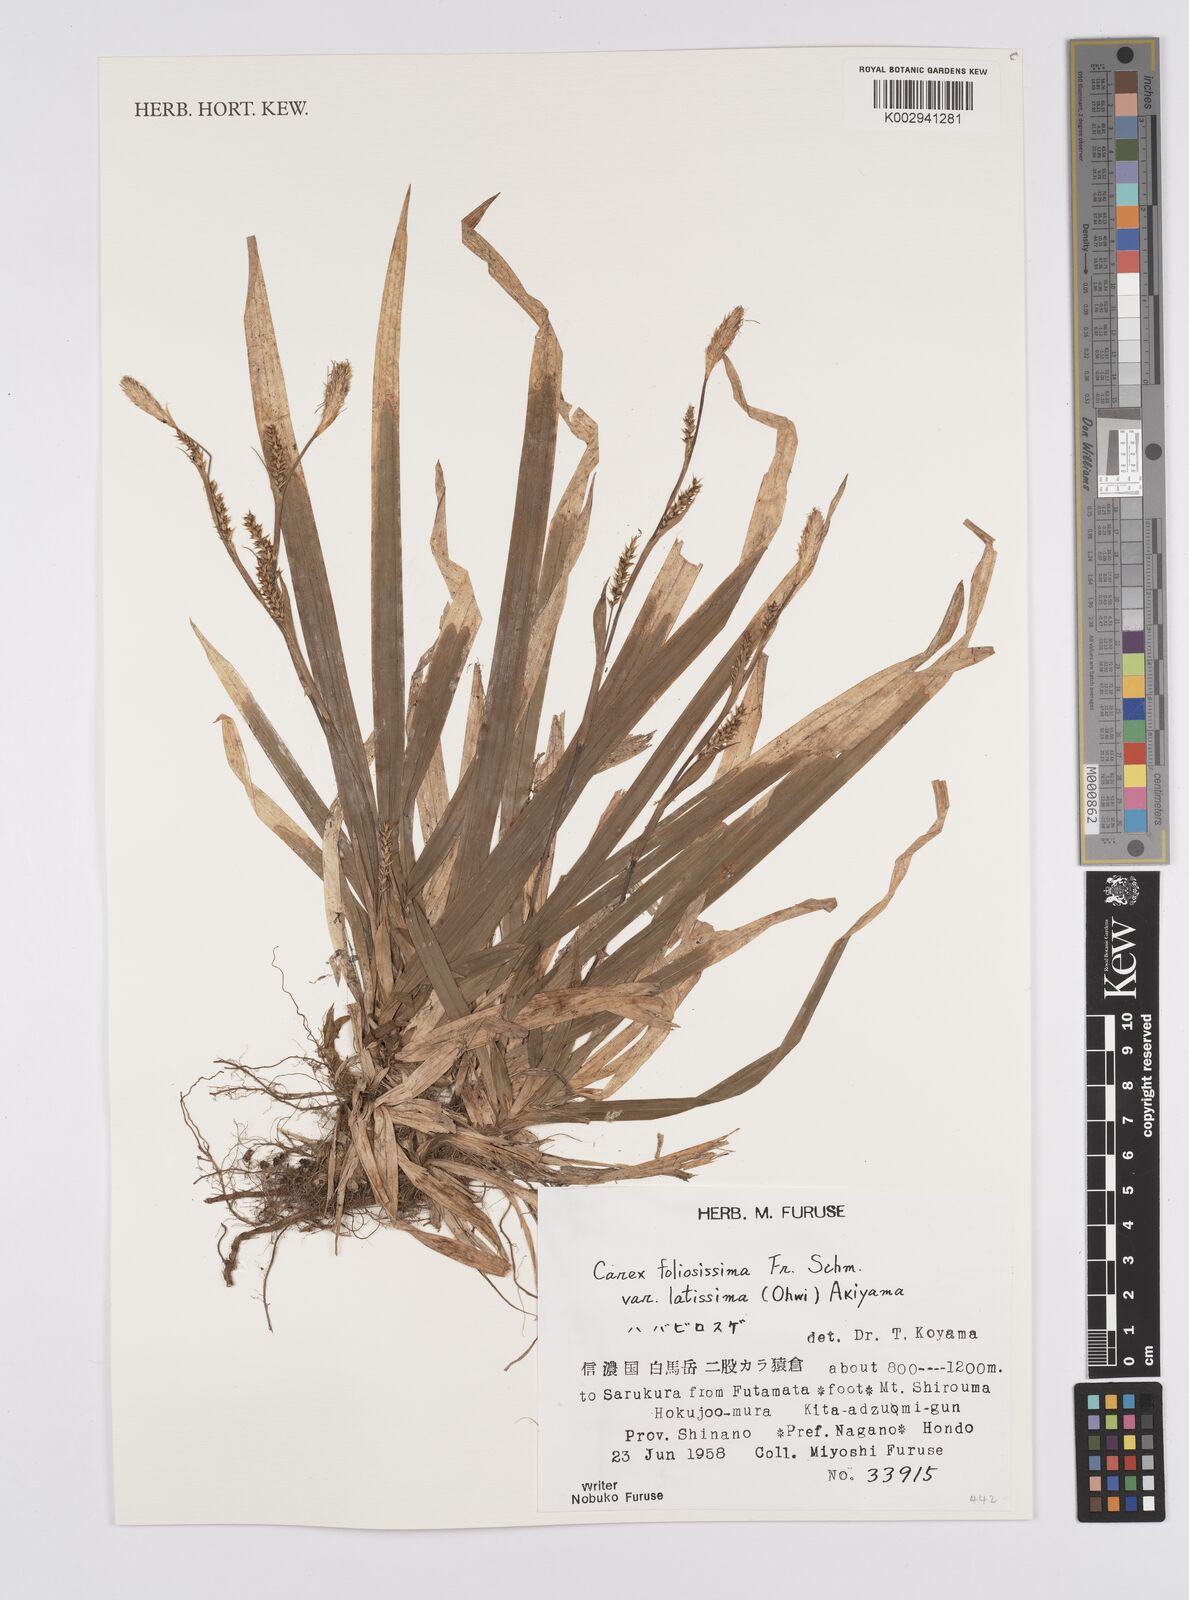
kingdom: Plantae
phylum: Tracheophyta
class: Liliopsida
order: Poales
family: Cyperaceae
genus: Carex
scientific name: Carex foliosissima
